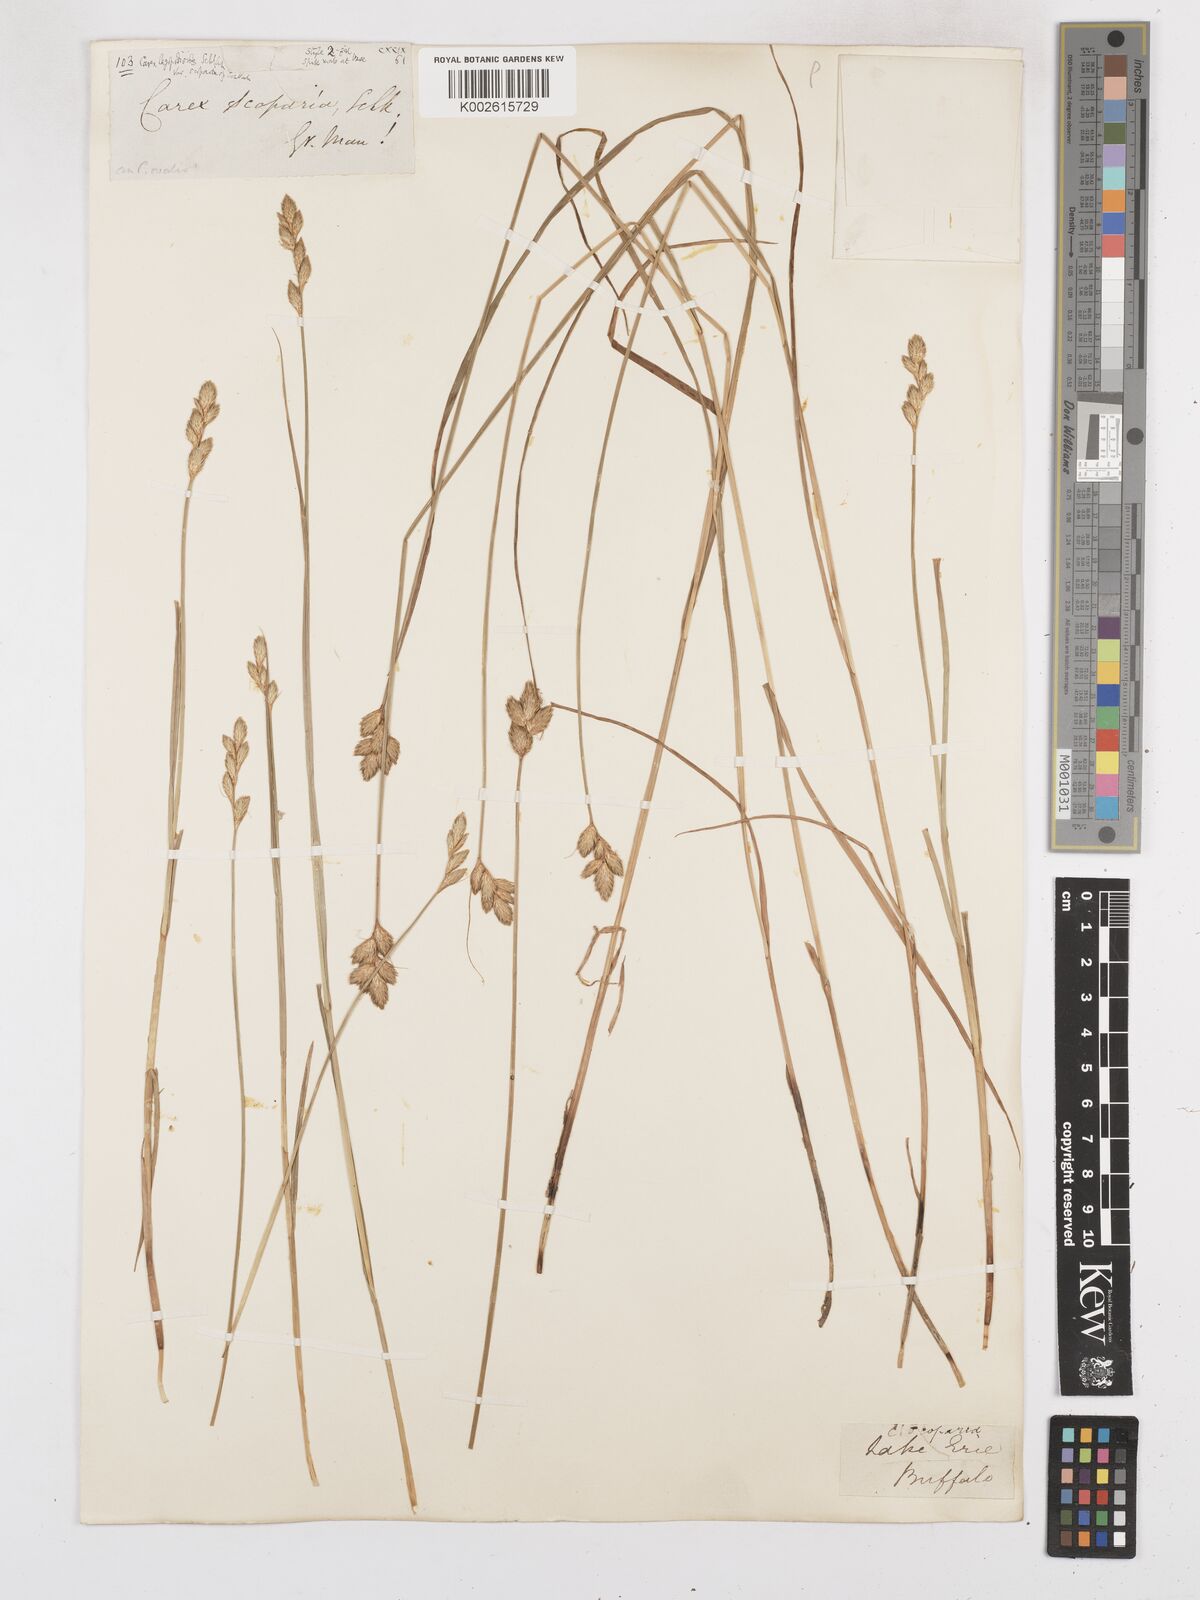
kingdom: Plantae
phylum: Tracheophyta
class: Liliopsida
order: Poales
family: Cyperaceae
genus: Carex
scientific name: Carex leporina
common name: Oval sedge
